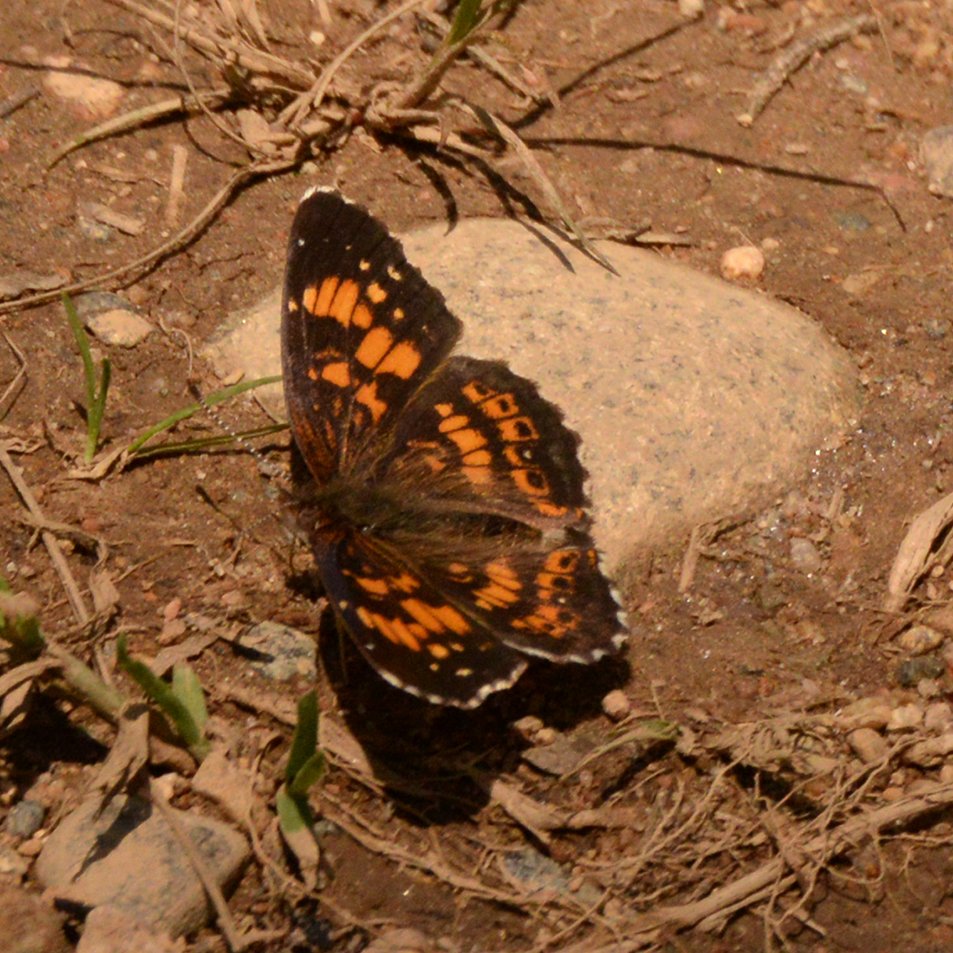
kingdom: Animalia
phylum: Arthropoda
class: Insecta
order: Lepidoptera
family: Nymphalidae
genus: Chlosyne
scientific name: Chlosyne nycteis
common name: Silvery Checkerspot
